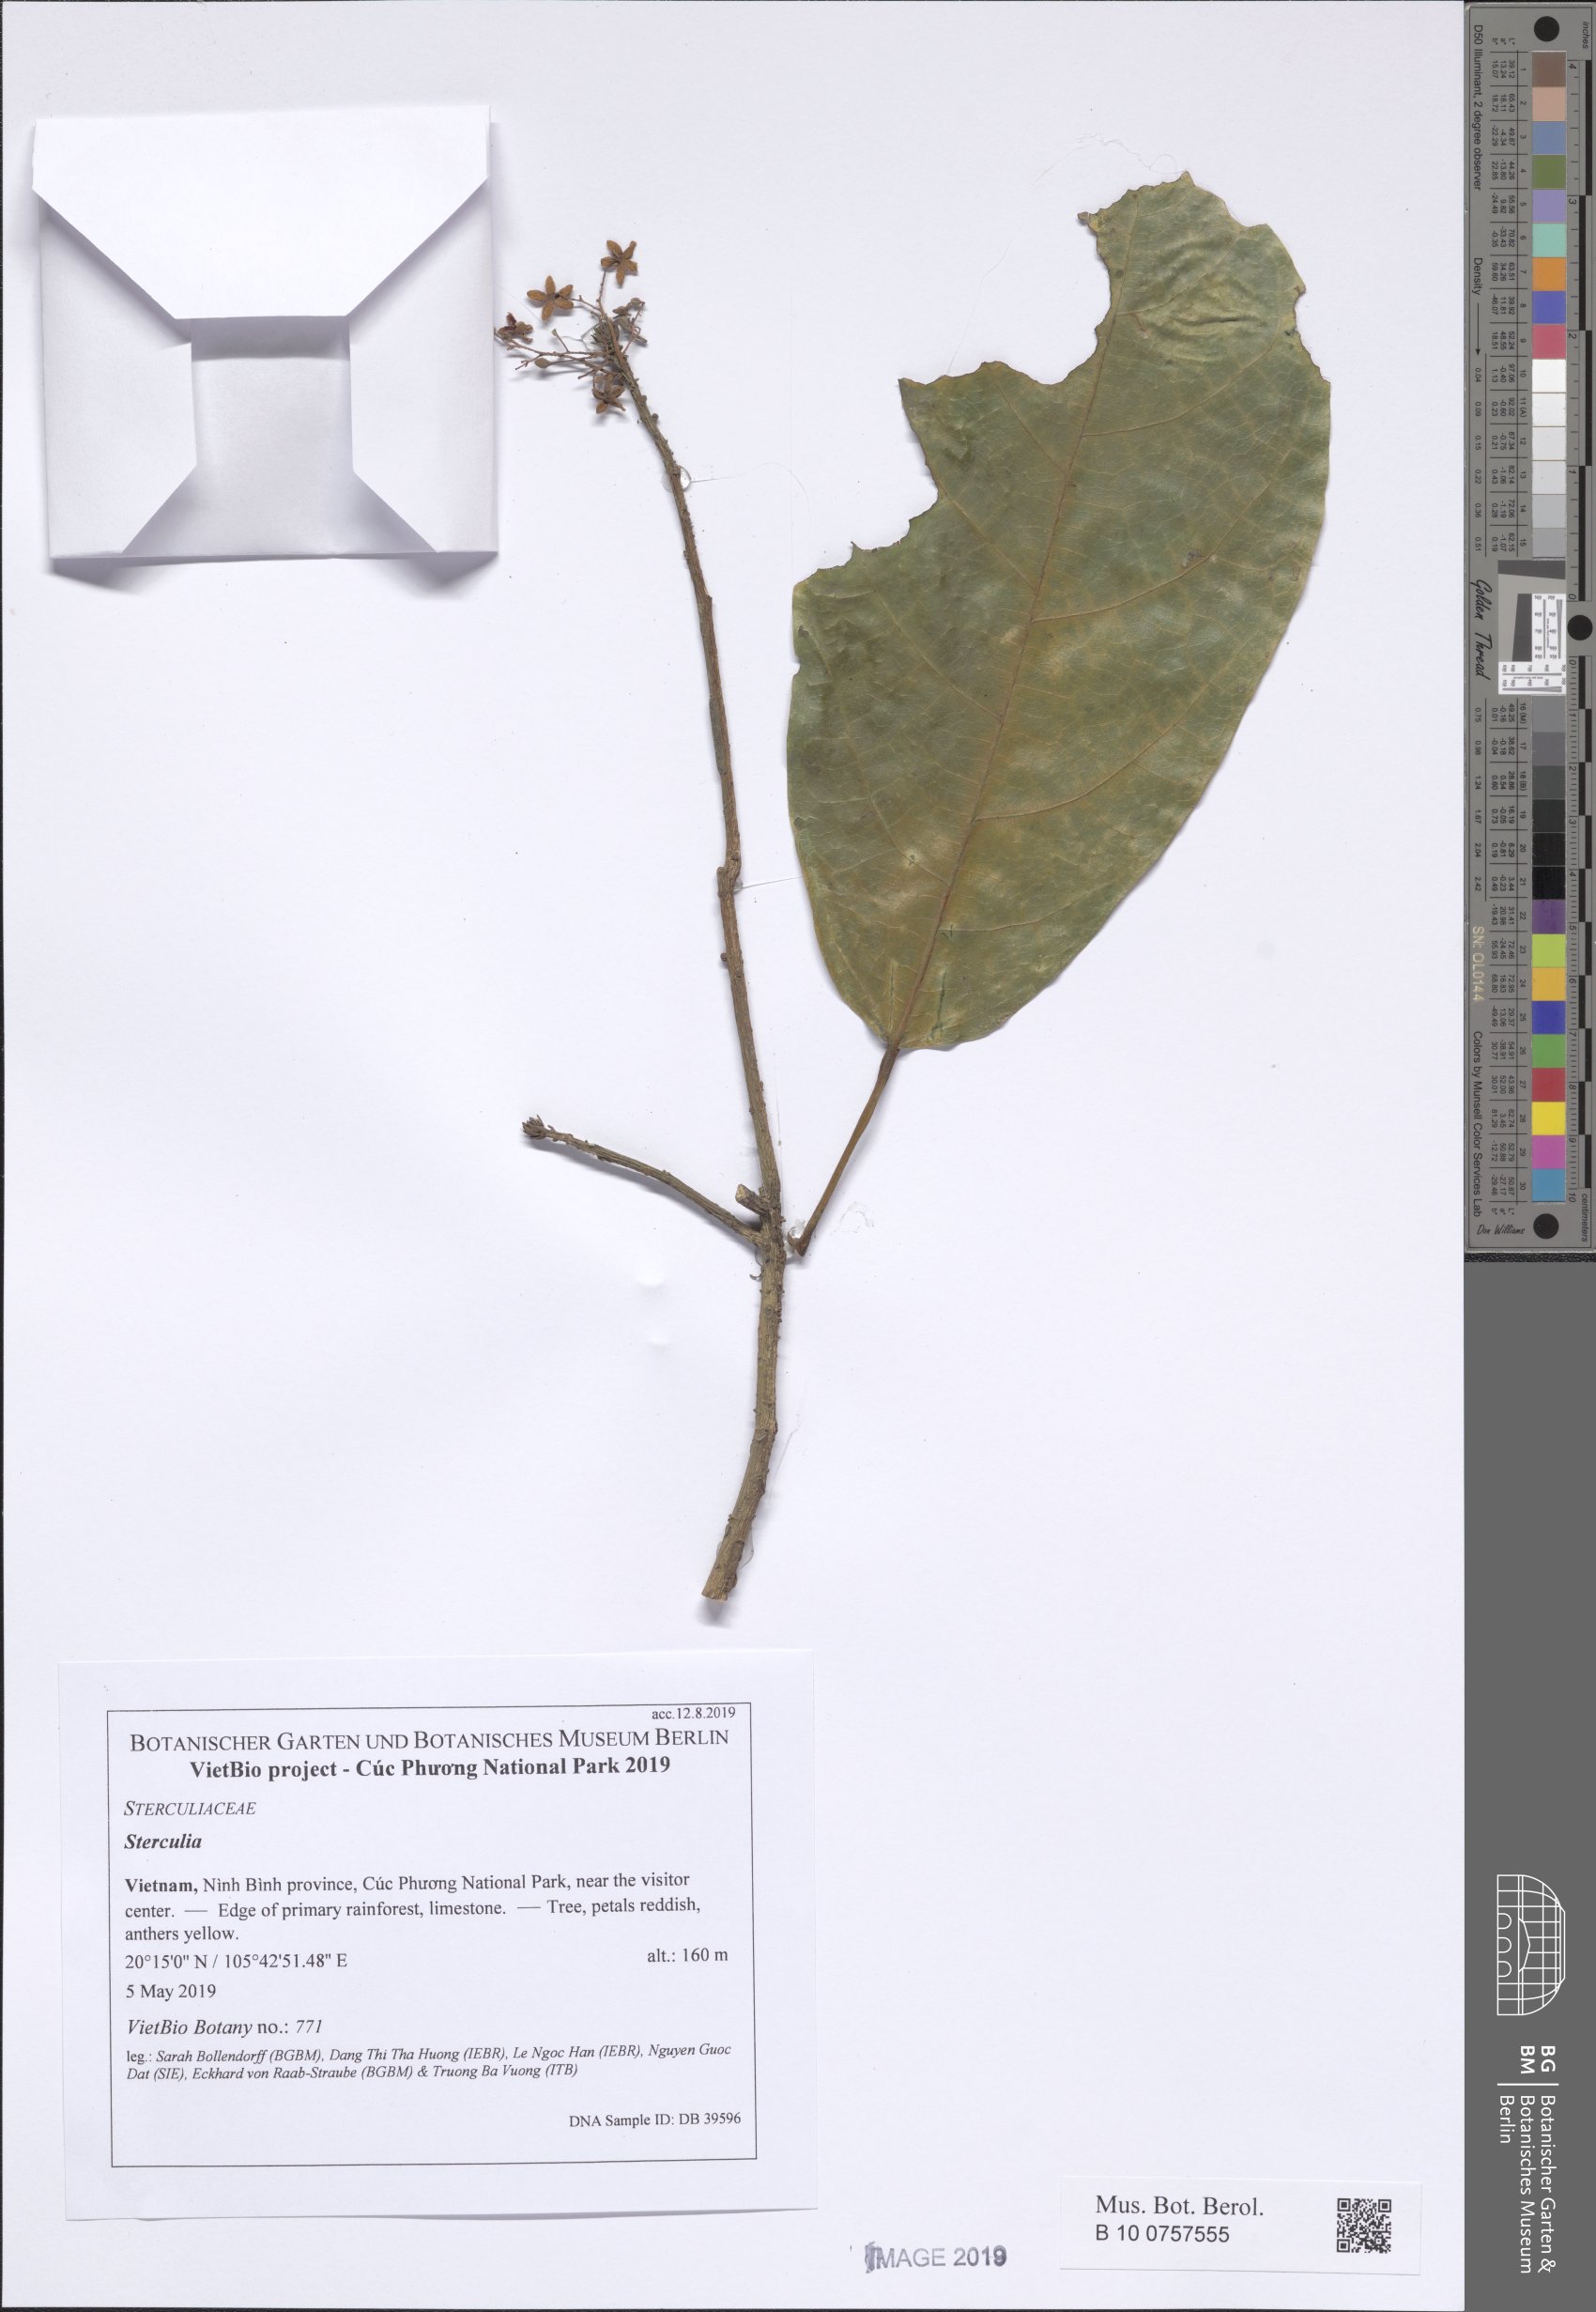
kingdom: Plantae
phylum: Tracheophyta
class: Magnoliopsida
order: Malvales
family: Malvaceae
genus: Sterculia
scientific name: Sterculia lanceolata
